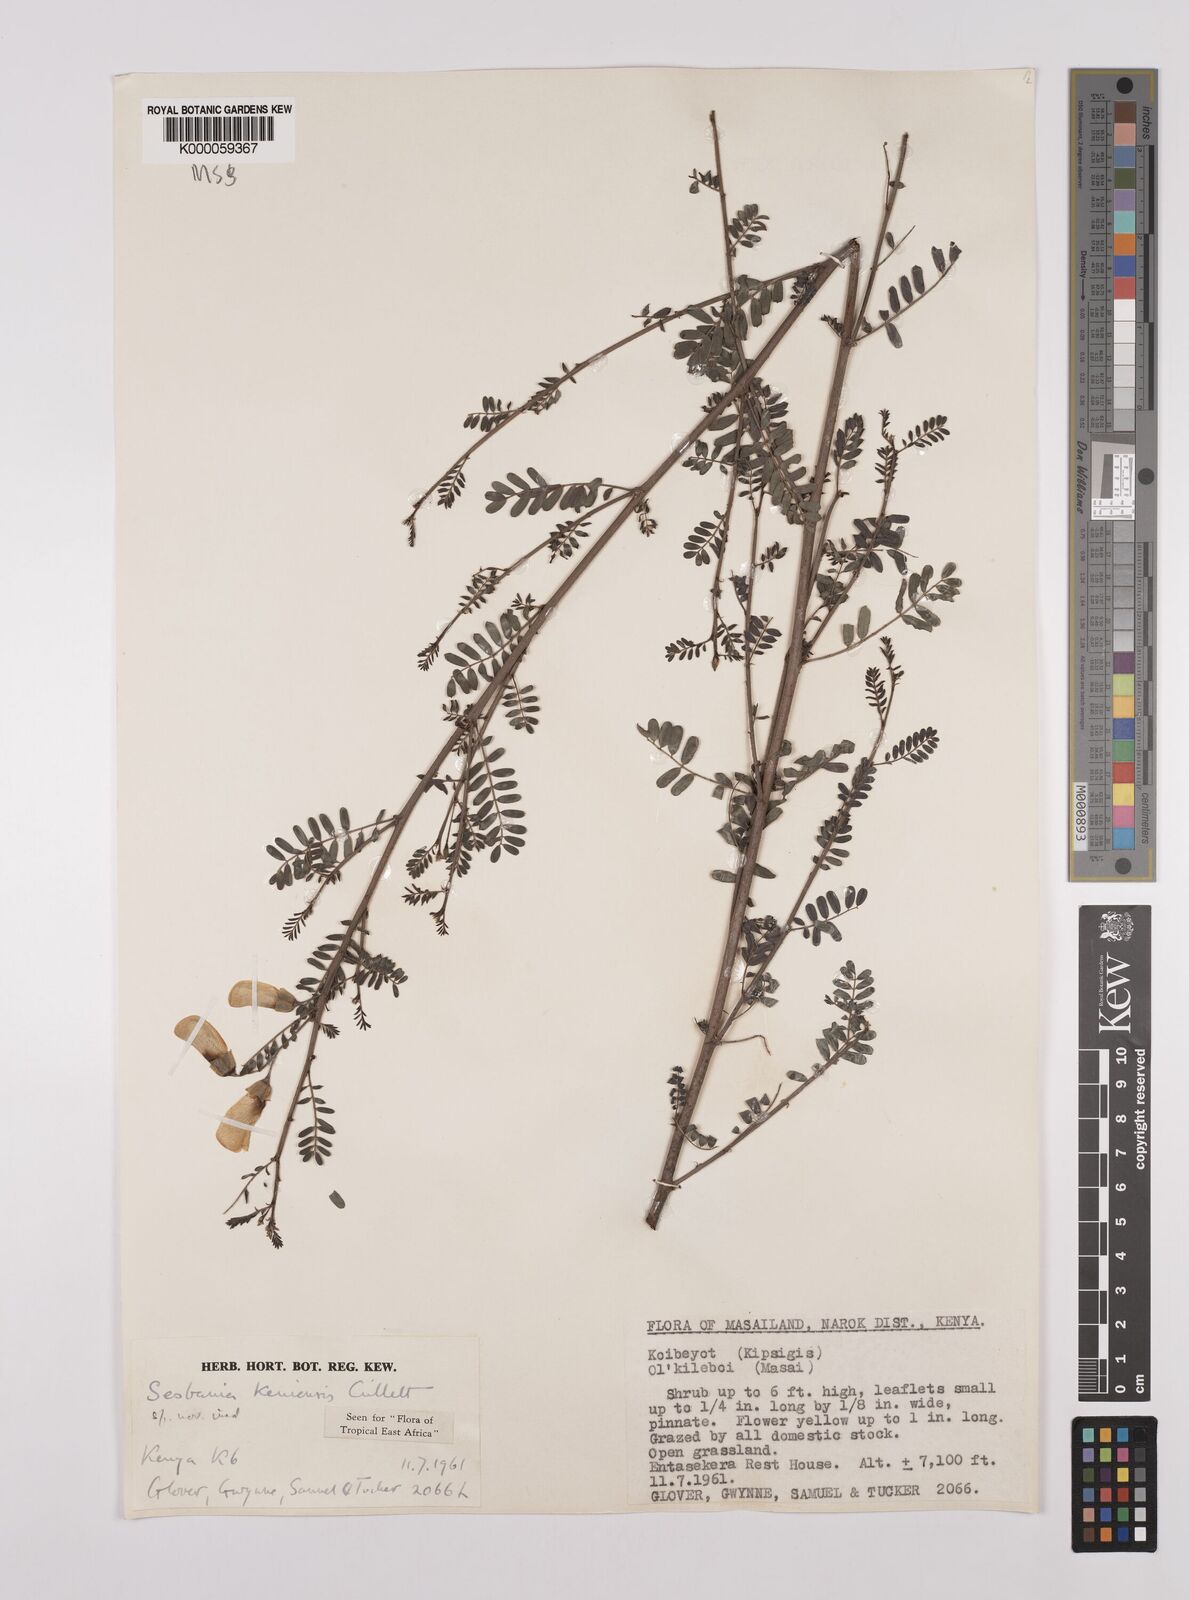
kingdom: Plantae
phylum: Tracheophyta
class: Magnoliopsida
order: Fabales
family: Fabaceae
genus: Sesbania
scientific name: Sesbania keniensis
